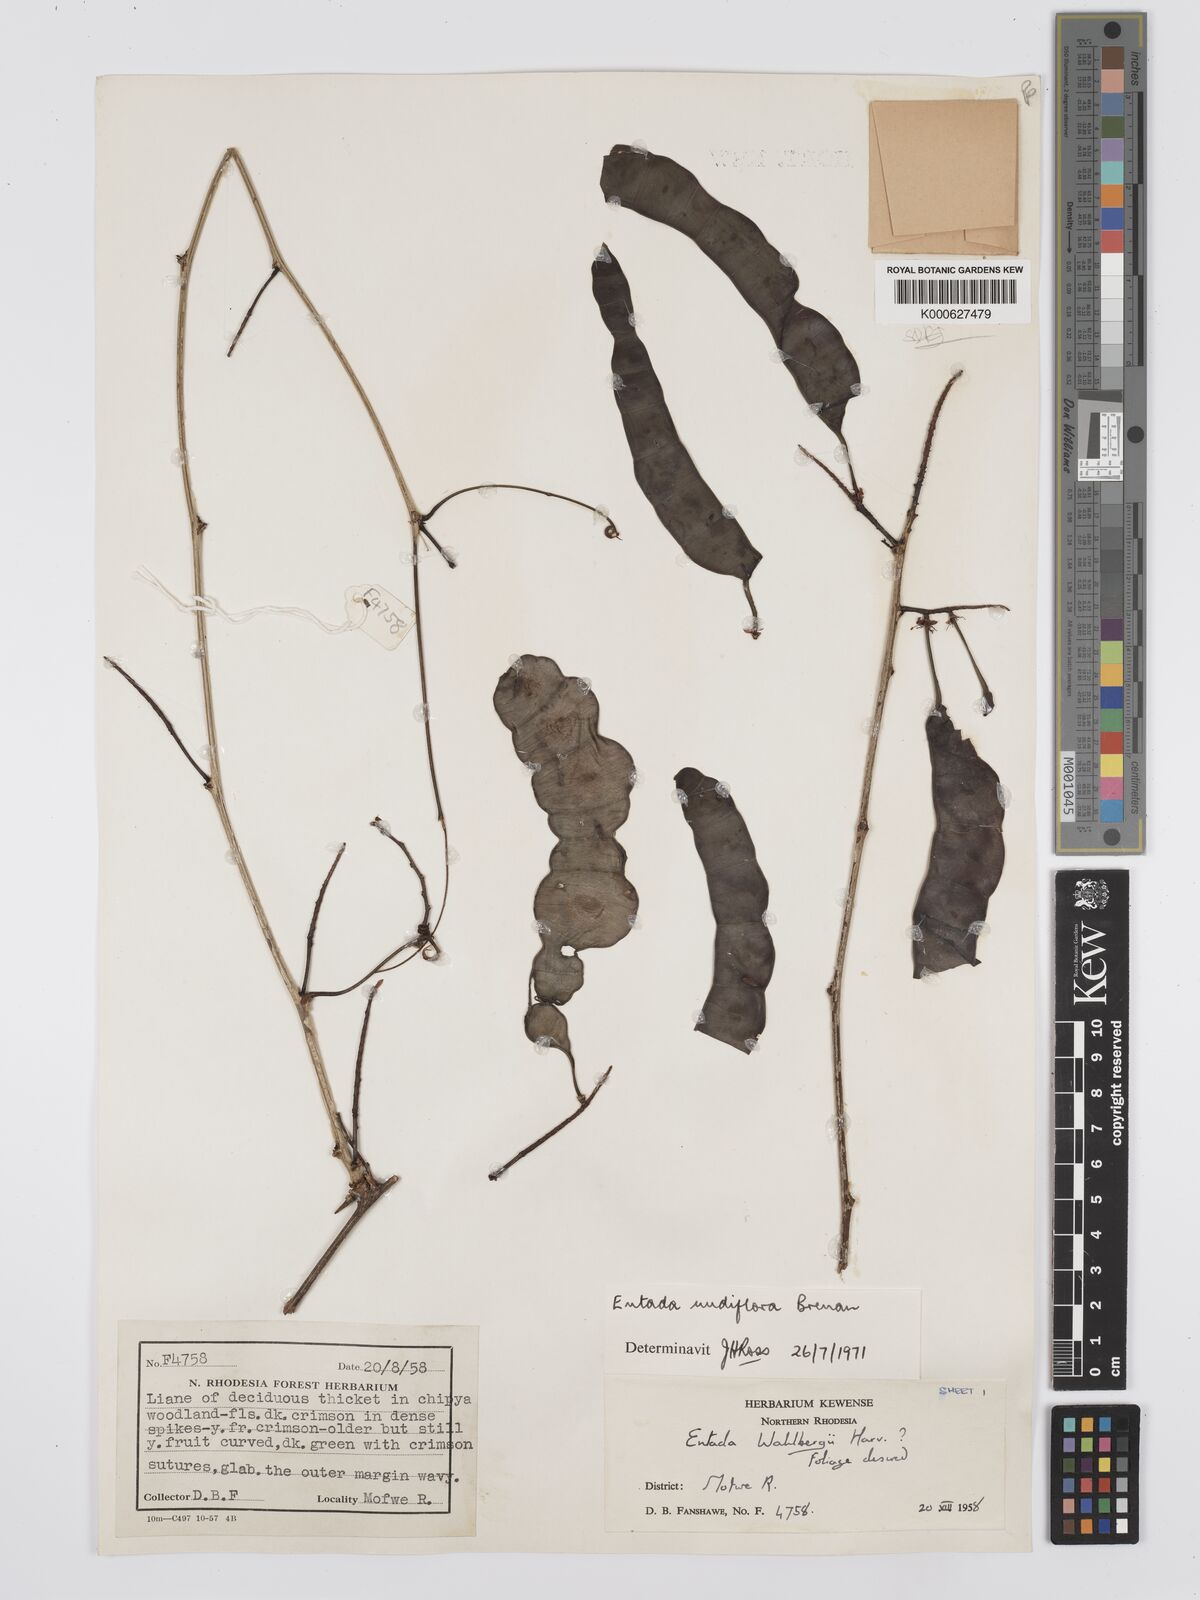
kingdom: Plantae
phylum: Tracheophyta
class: Magnoliopsida
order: Fabales
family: Fabaceae
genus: Entada
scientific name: Entada nudiflora
